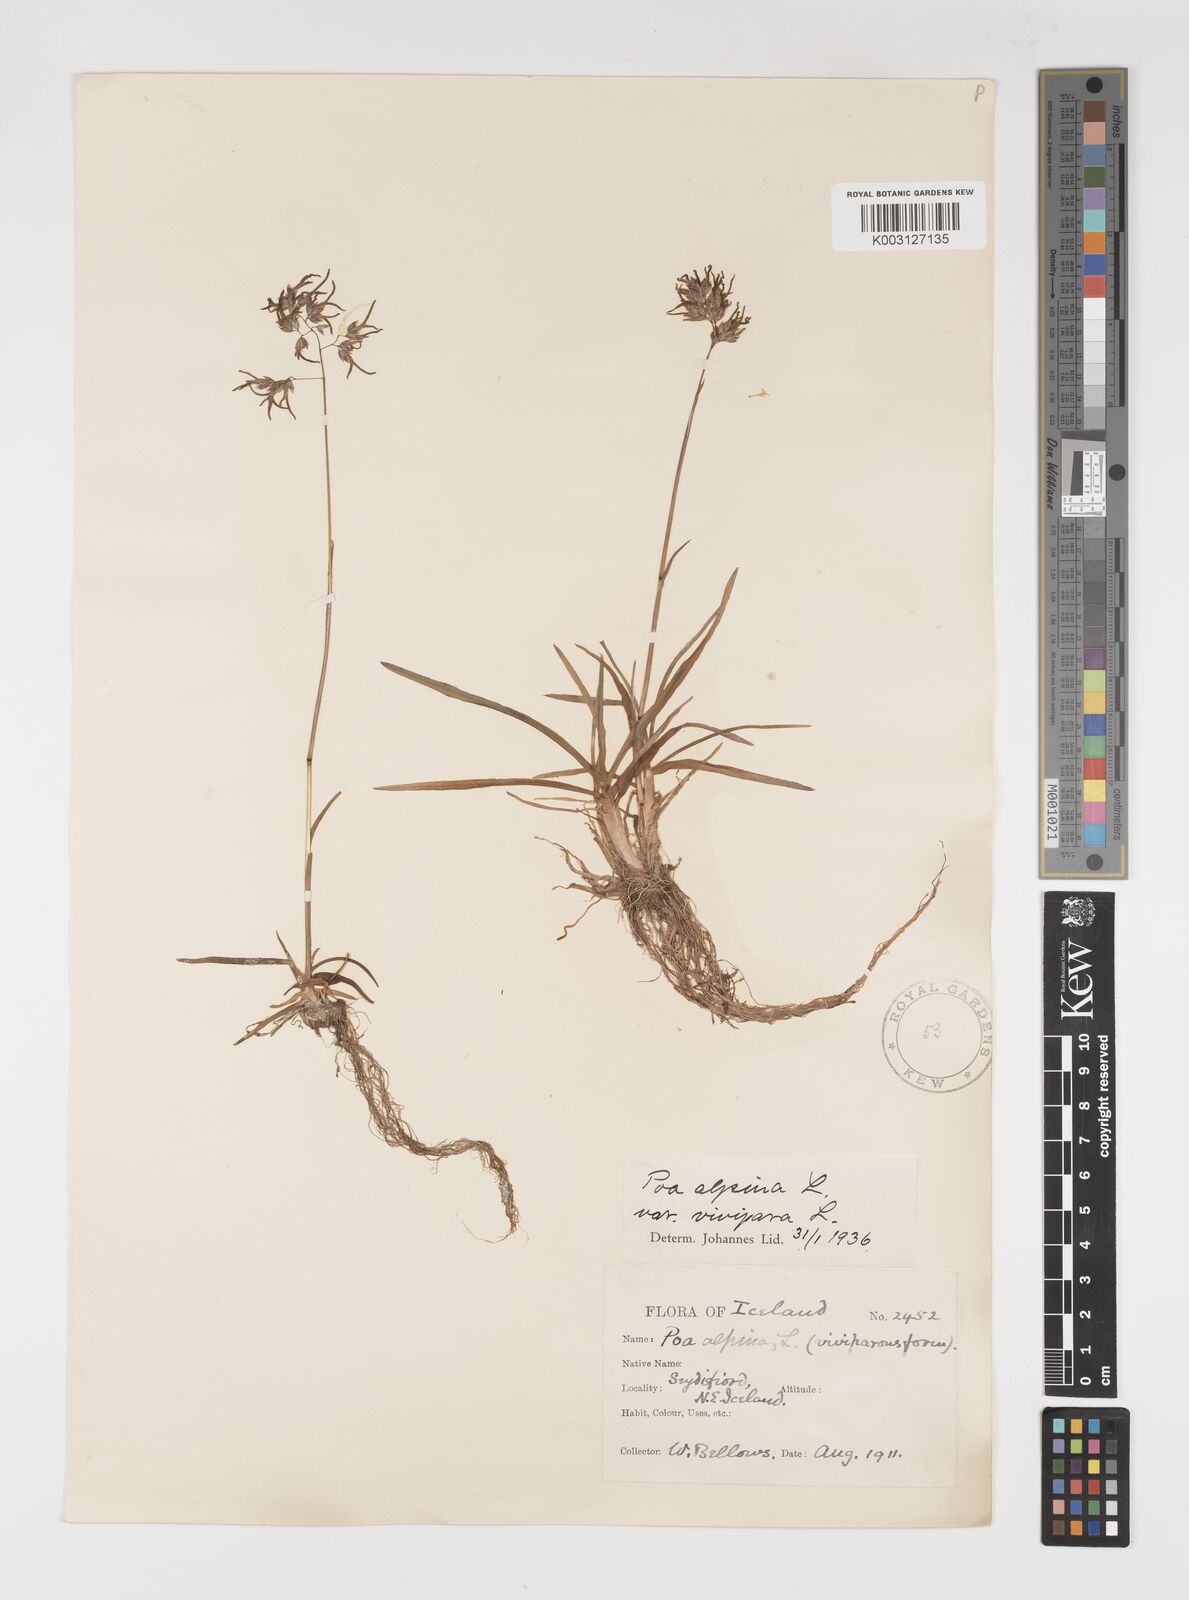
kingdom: Plantae
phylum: Tracheophyta
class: Liliopsida
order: Poales
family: Poaceae
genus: Poa
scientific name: Poa alpina
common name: Alpine bluegrass
